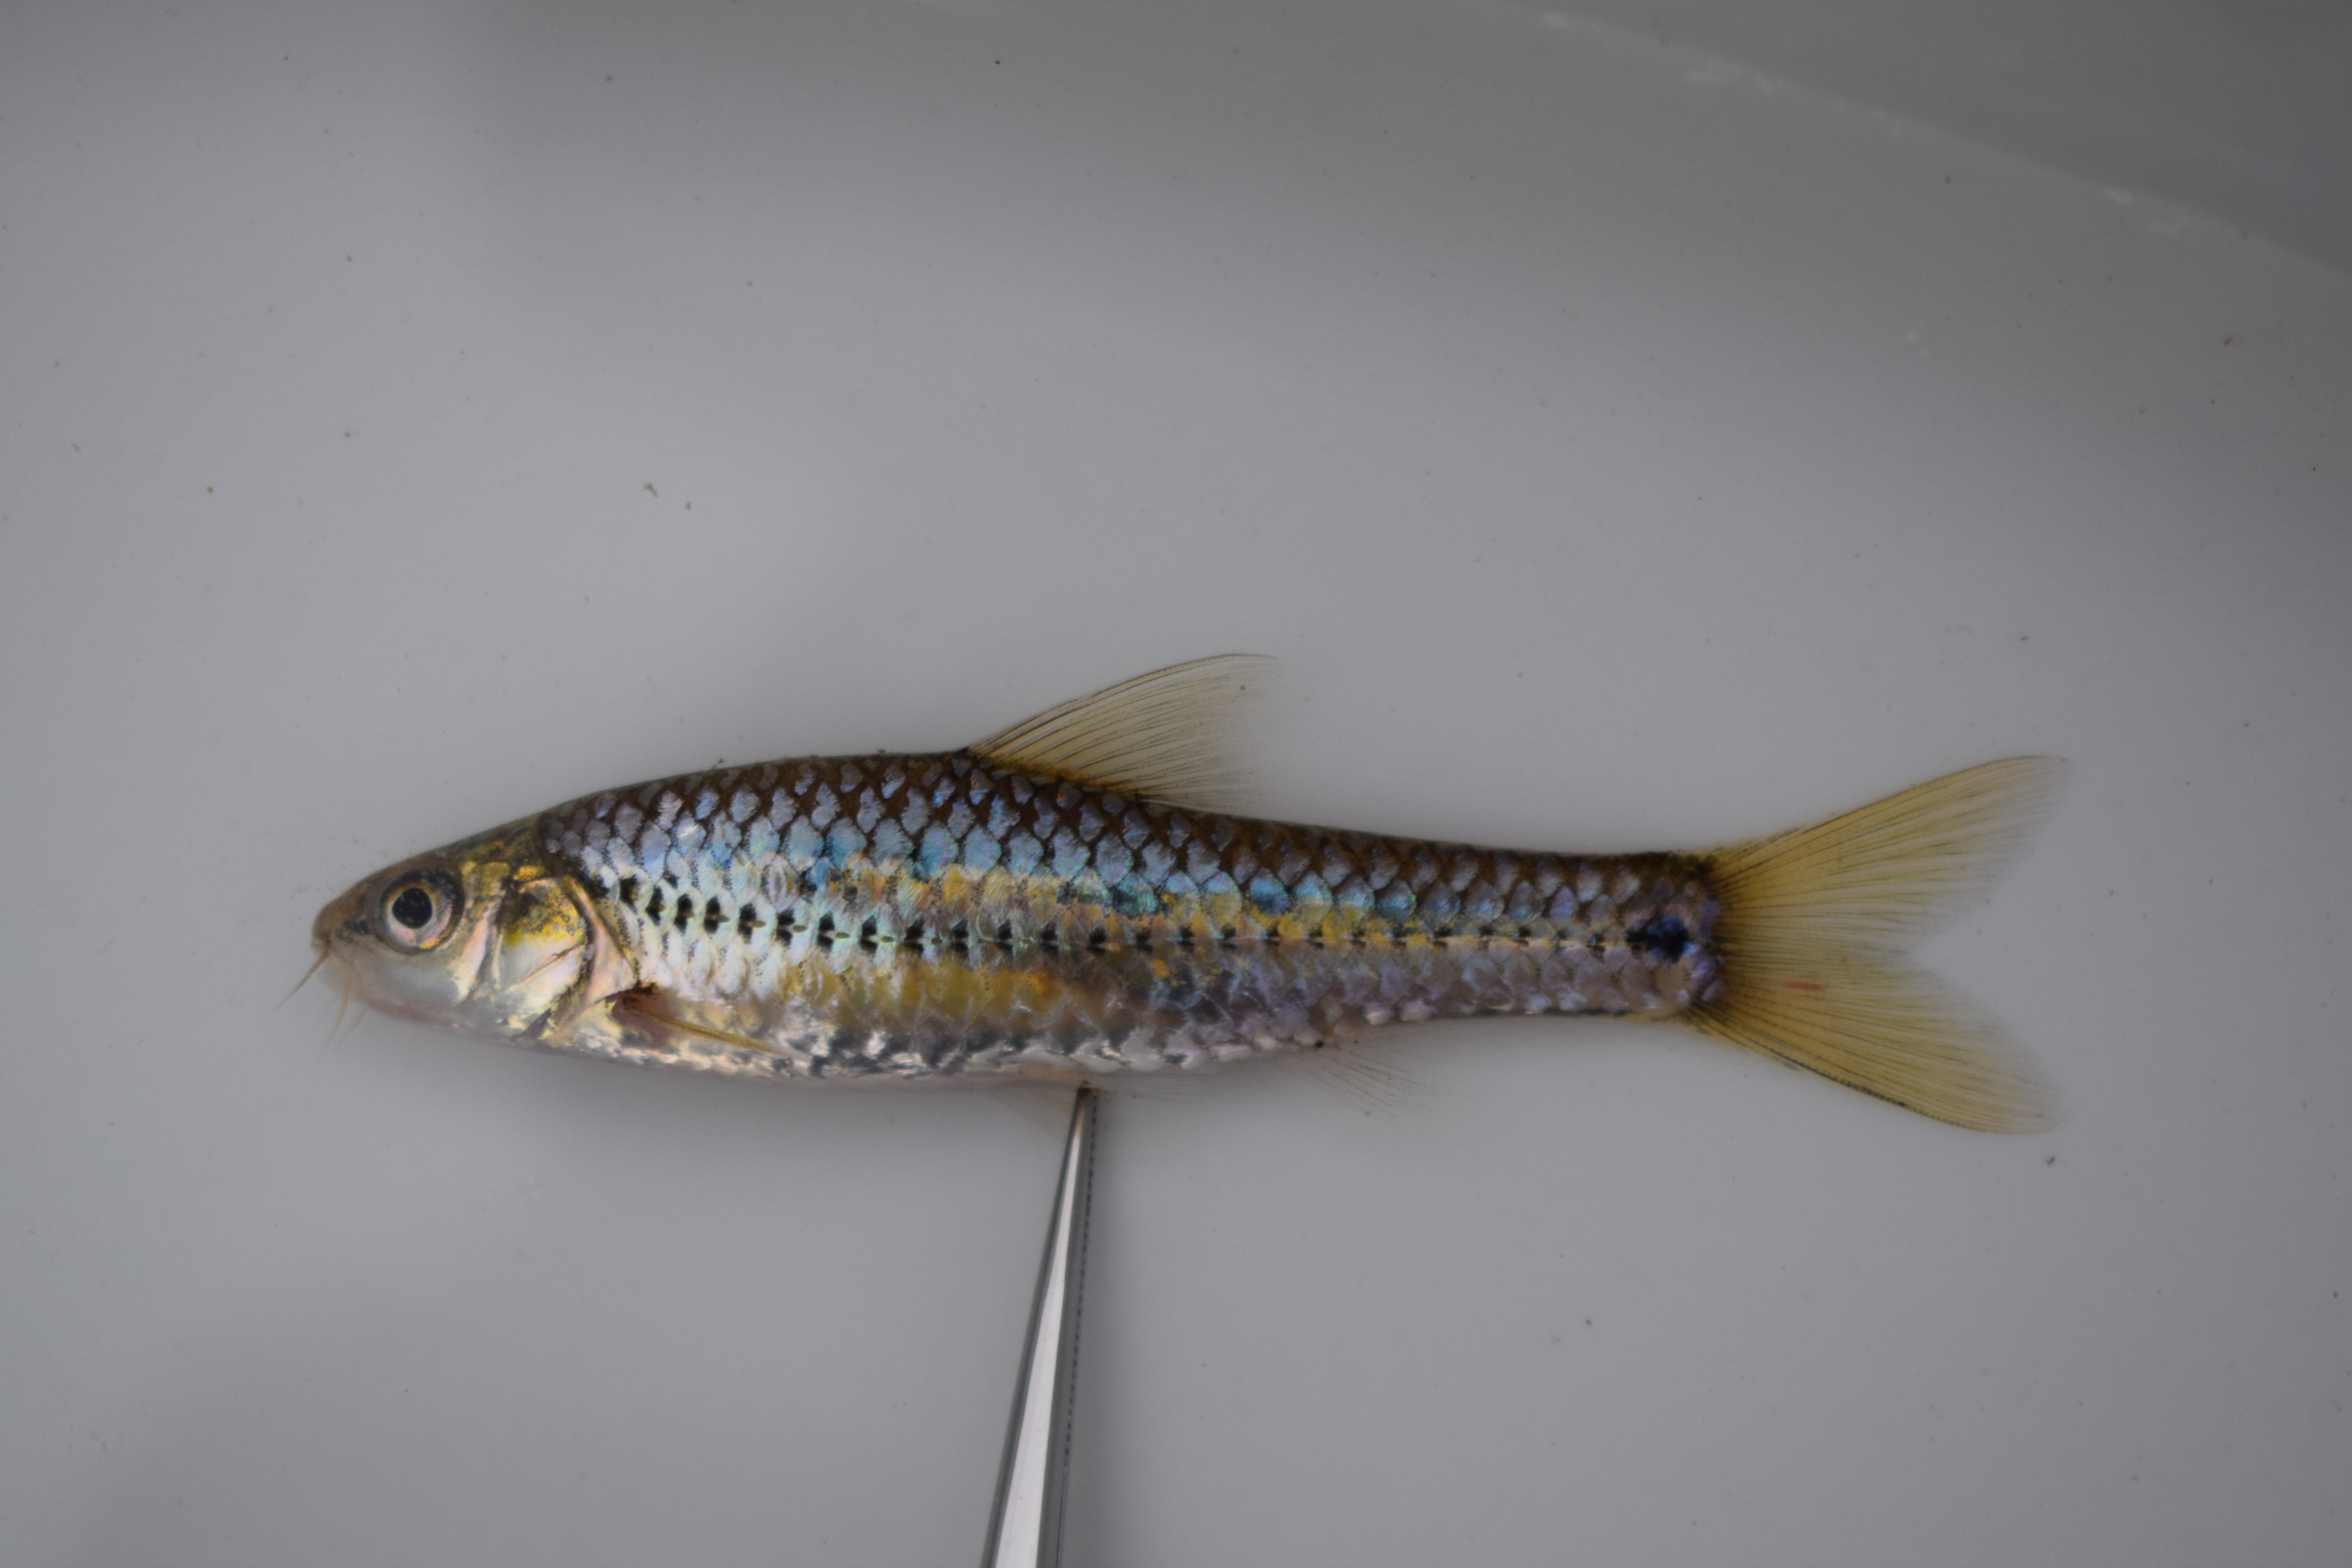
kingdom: Animalia
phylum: Chordata
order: Cypriniformes
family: Cyprinidae
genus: Enteromius
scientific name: Enteromius lineomaculatus
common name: Line-spotted barb
